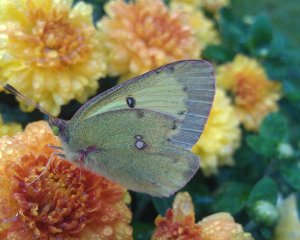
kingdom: Animalia
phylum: Arthropoda
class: Insecta
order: Lepidoptera
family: Pieridae
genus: Colias
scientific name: Colias philodice
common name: Clouded Sulphur
